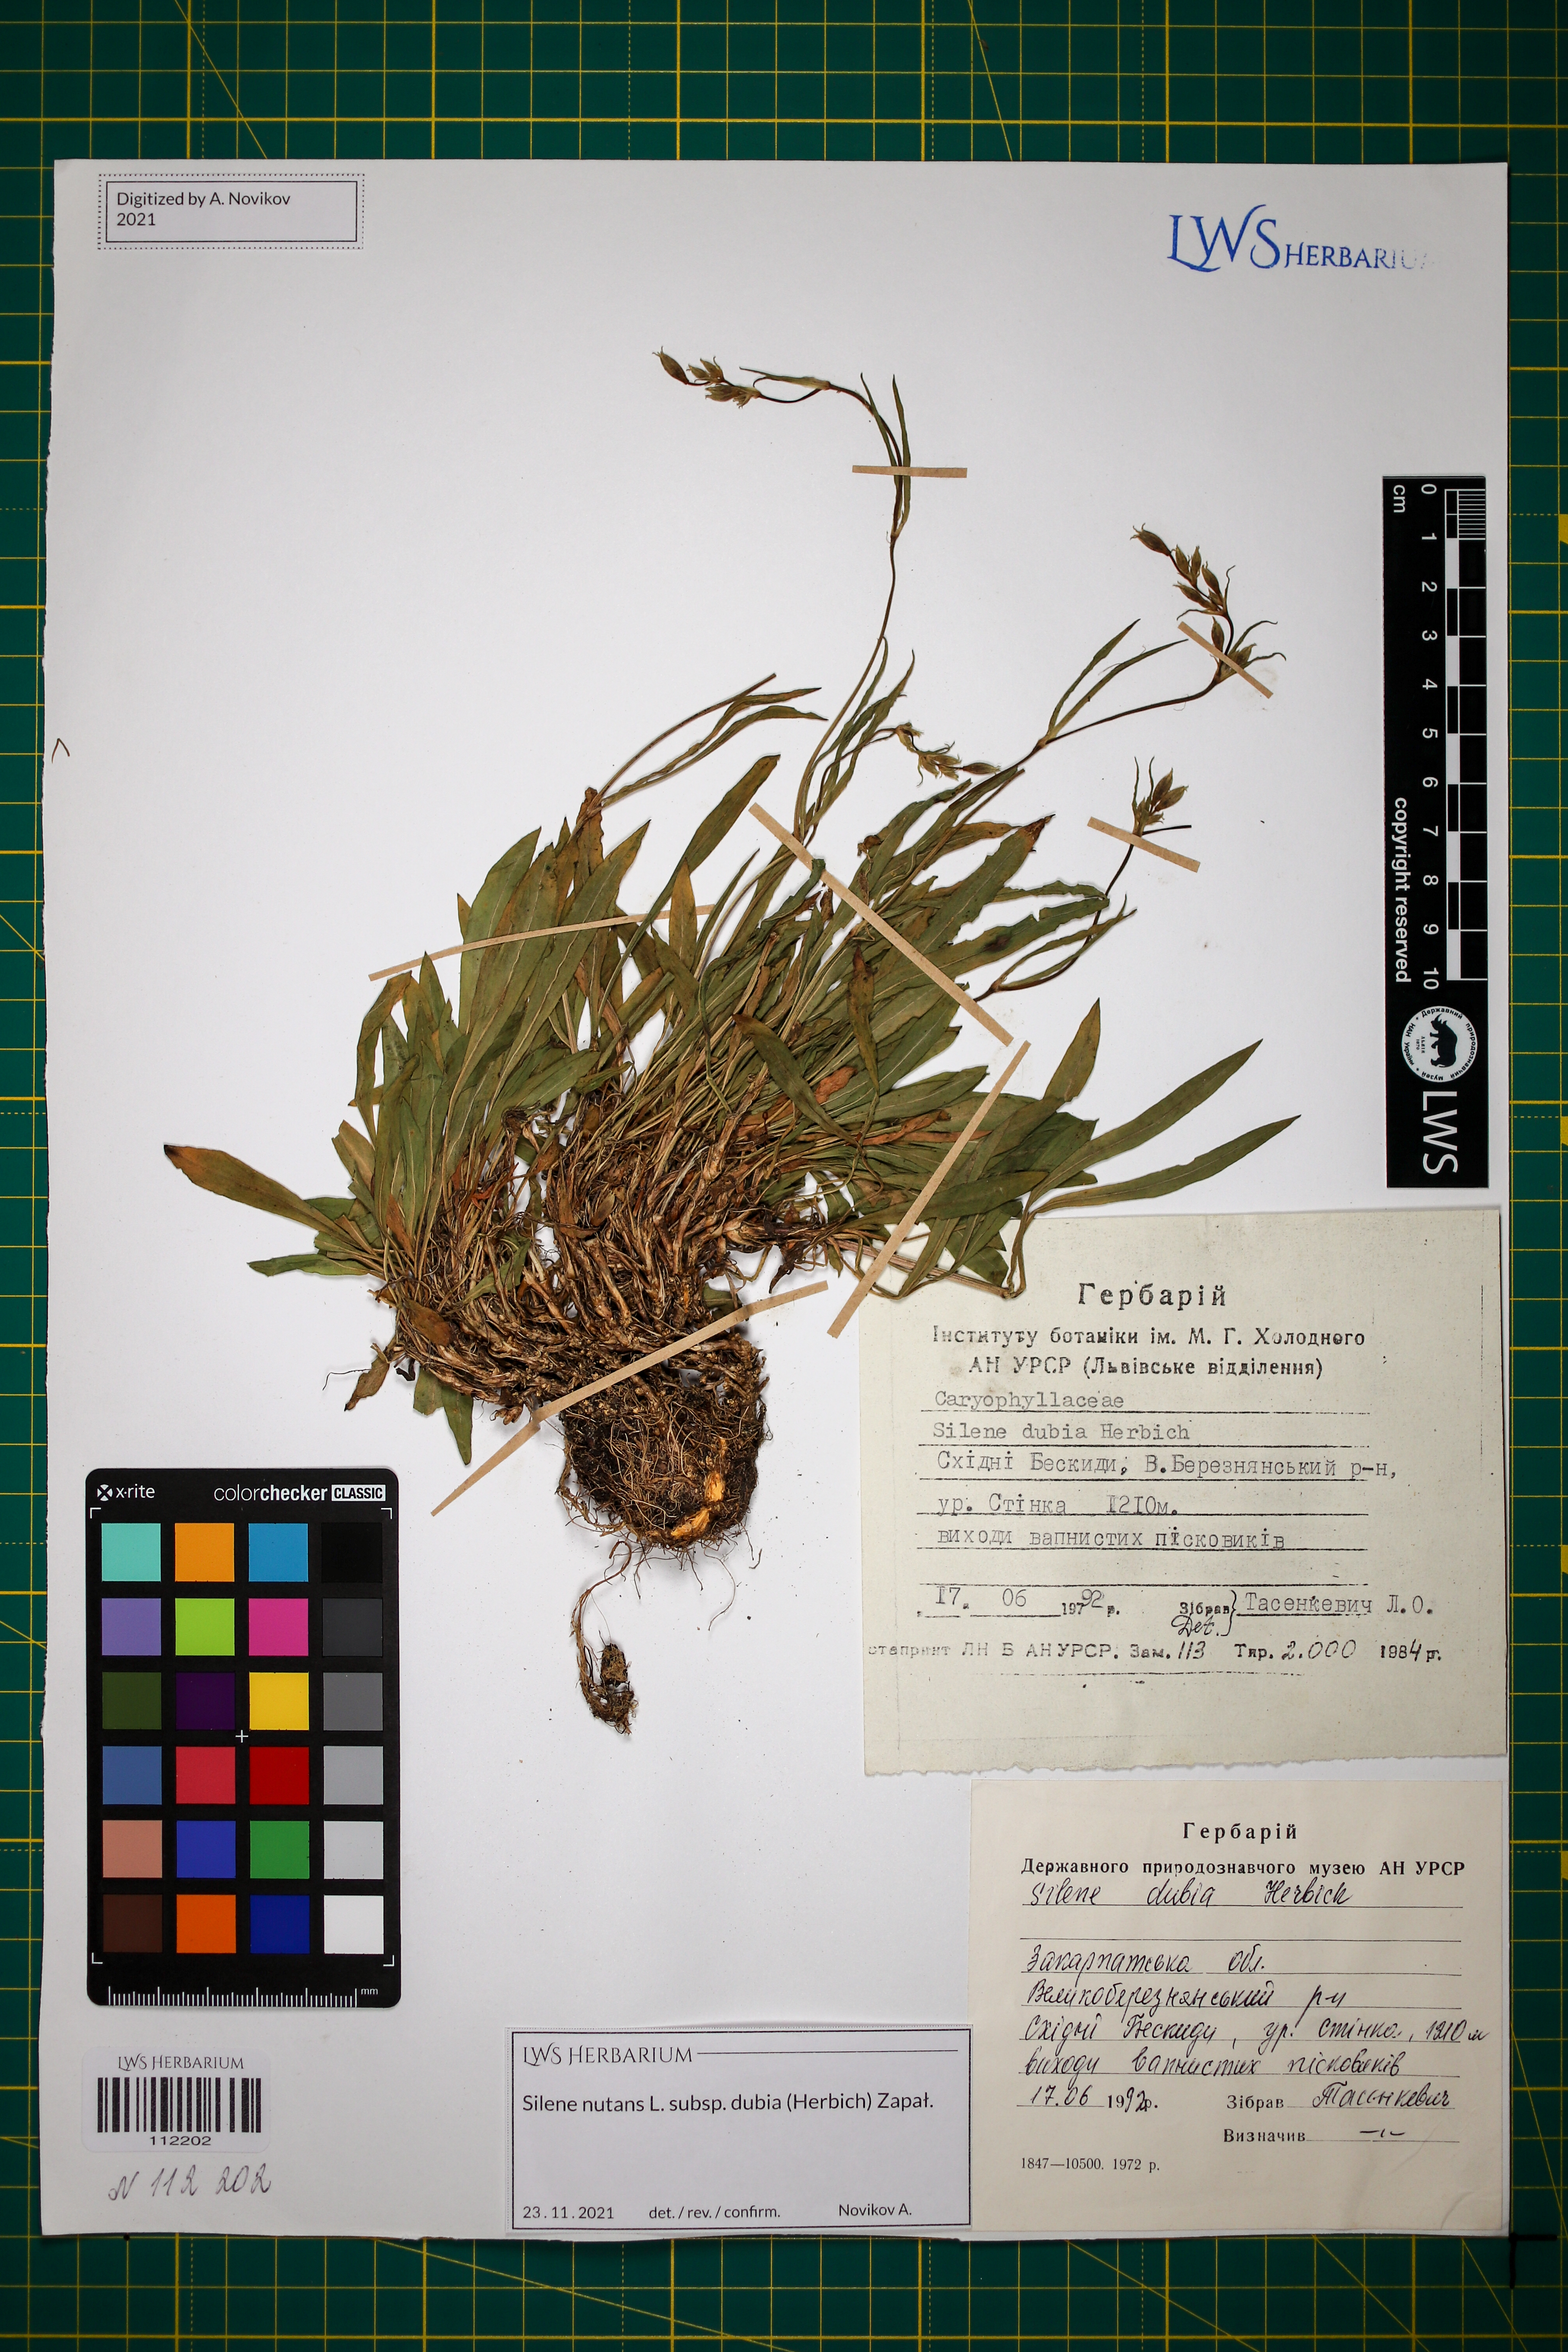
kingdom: Plantae
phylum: Tracheophyta
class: Magnoliopsida
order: Caryophyllales
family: Caryophyllaceae
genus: Silene
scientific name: Silene nutans
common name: Nottingham catchfly
